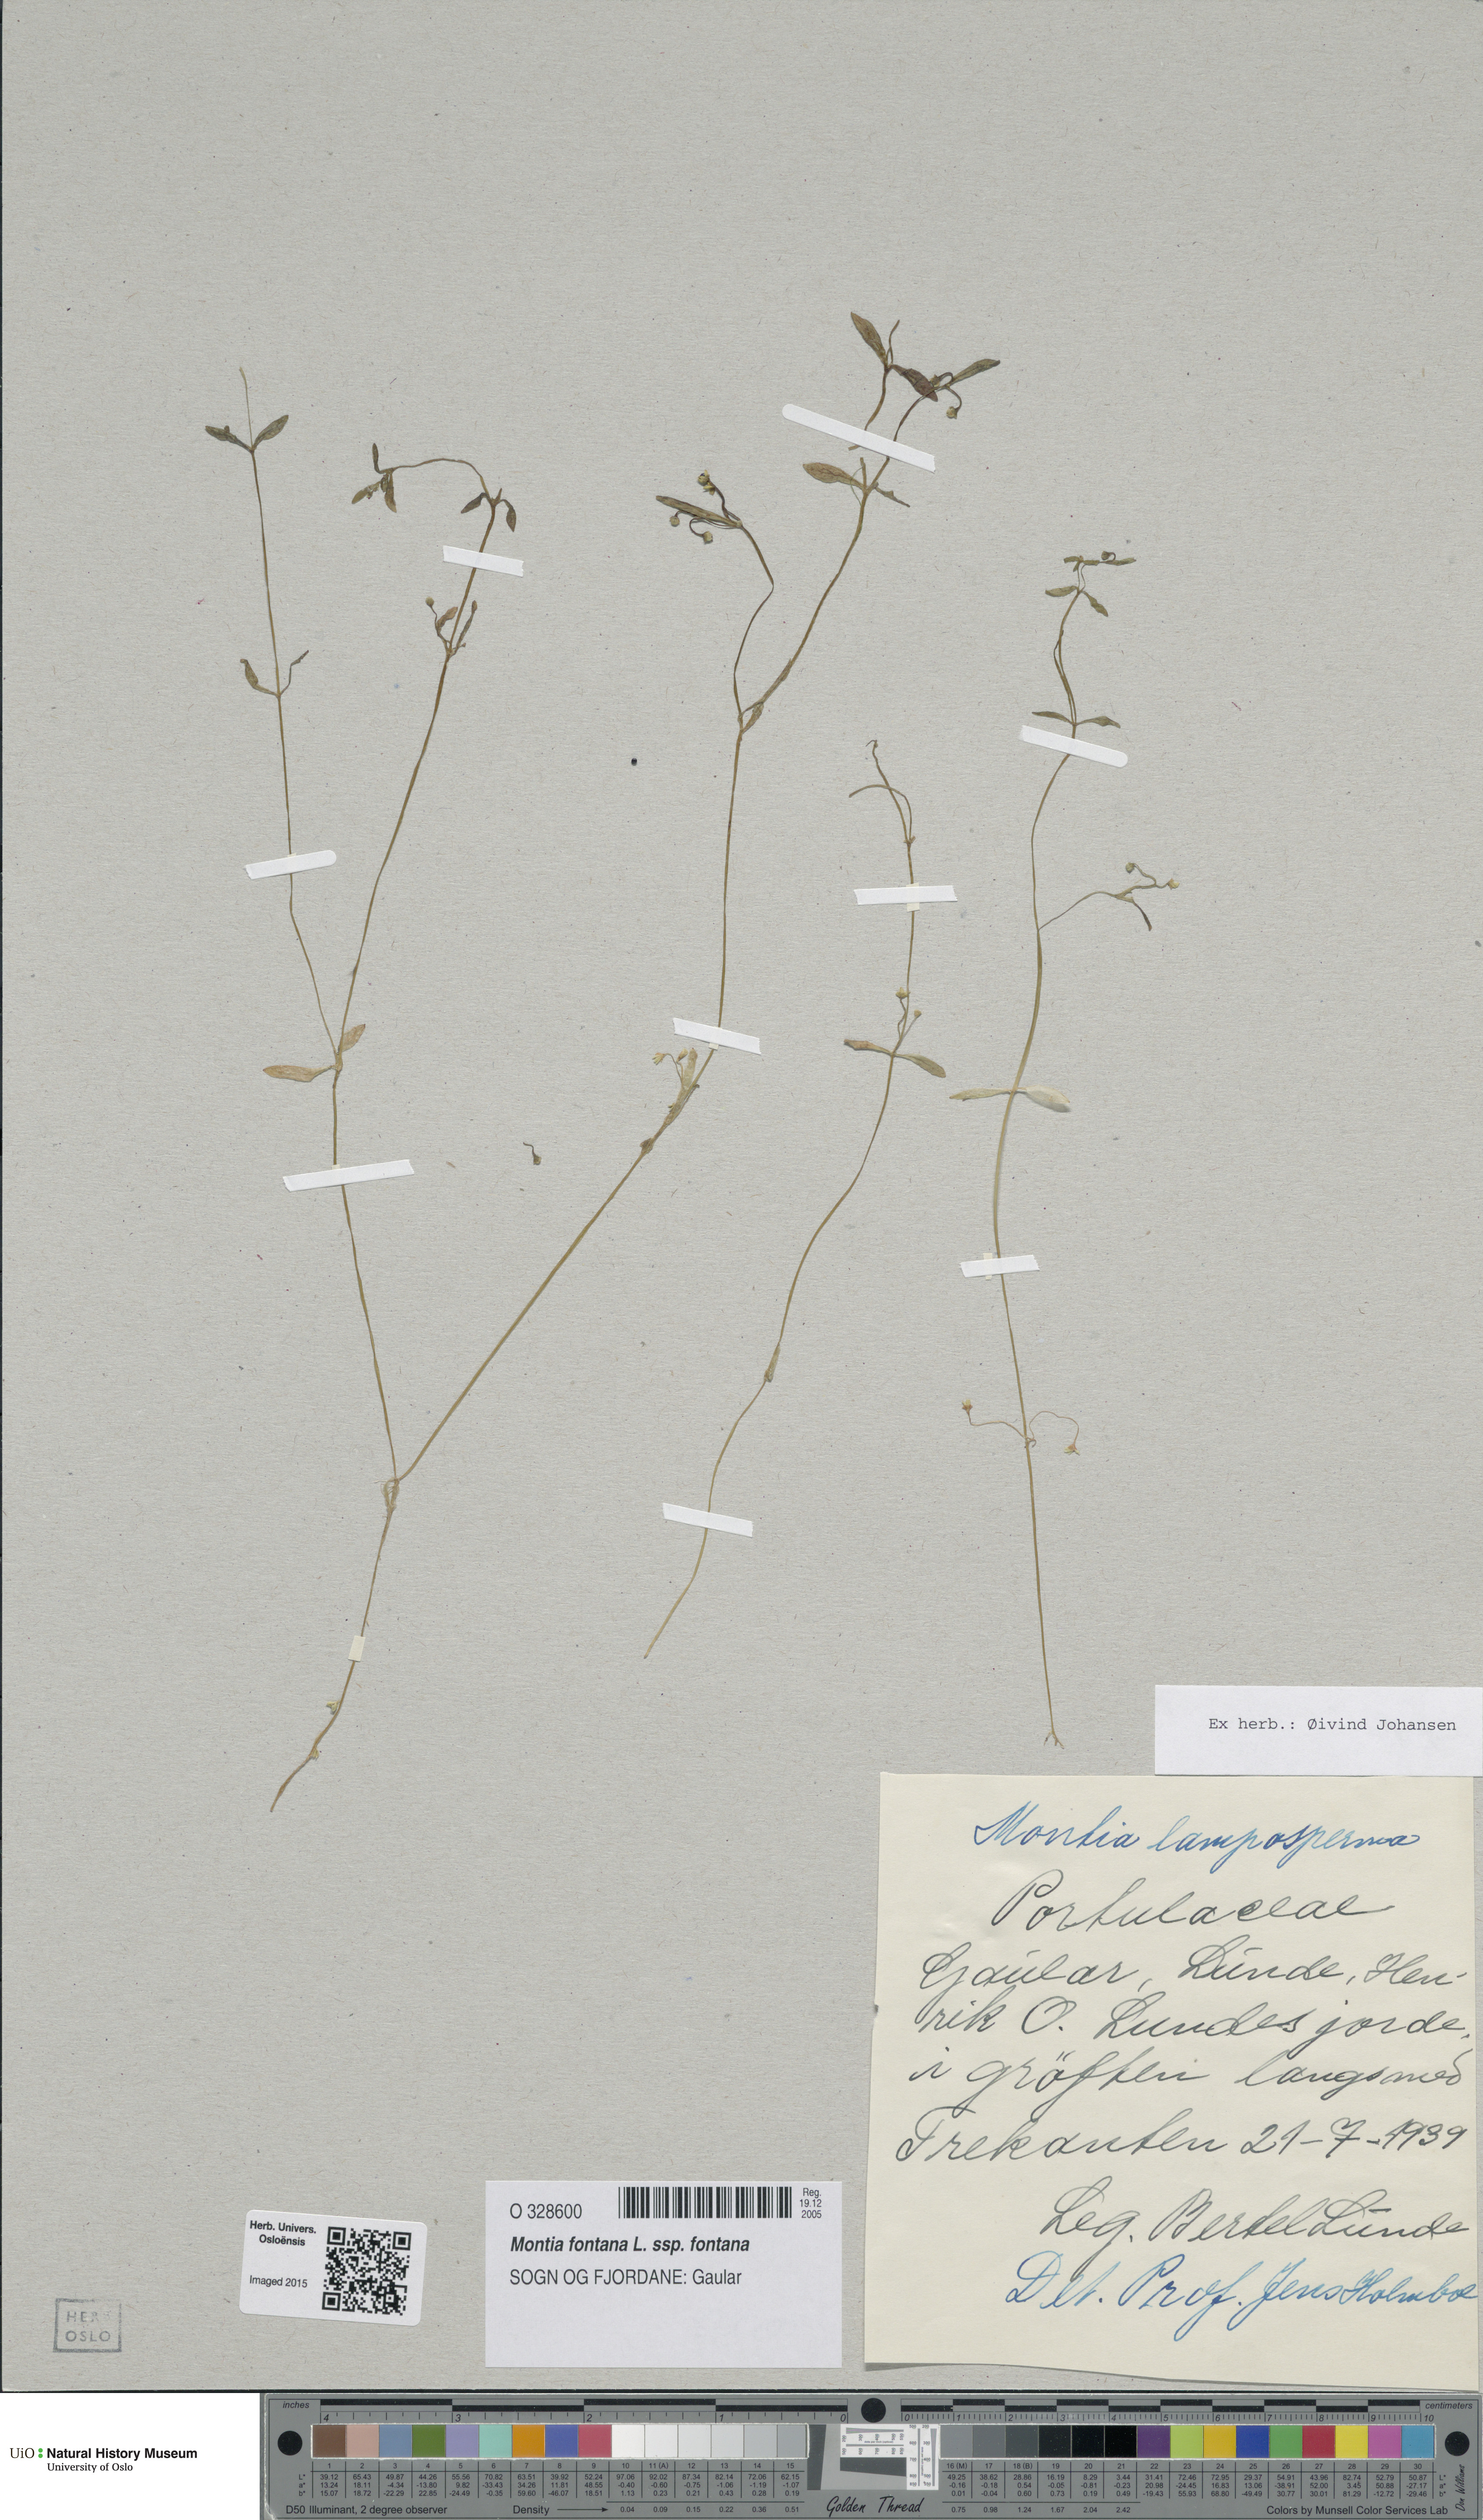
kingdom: Plantae
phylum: Tracheophyta
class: Magnoliopsida
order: Caryophyllales
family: Montiaceae
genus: Montia
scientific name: Montia fontana
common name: Blinks
